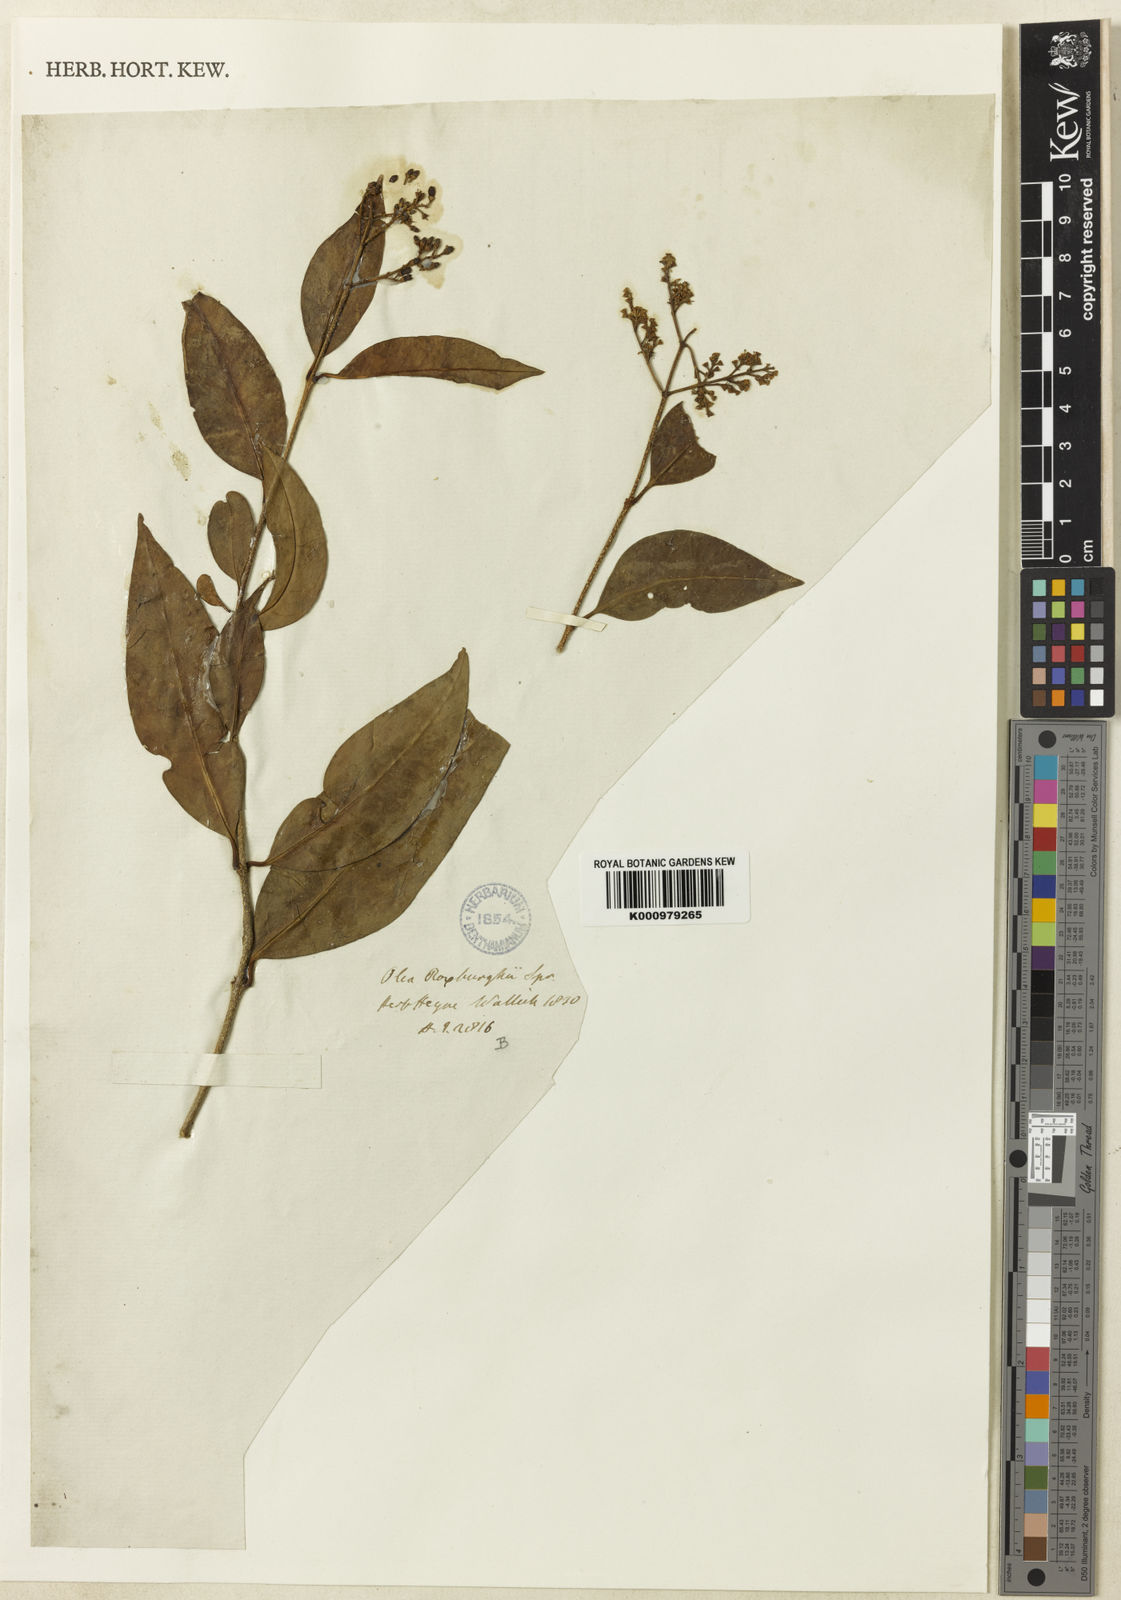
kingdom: Plantae
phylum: Tracheophyta
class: Magnoliopsida
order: Lamiales
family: Oleaceae
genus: Ligustrum
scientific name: Ligustrum robustum
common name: Tree privet
